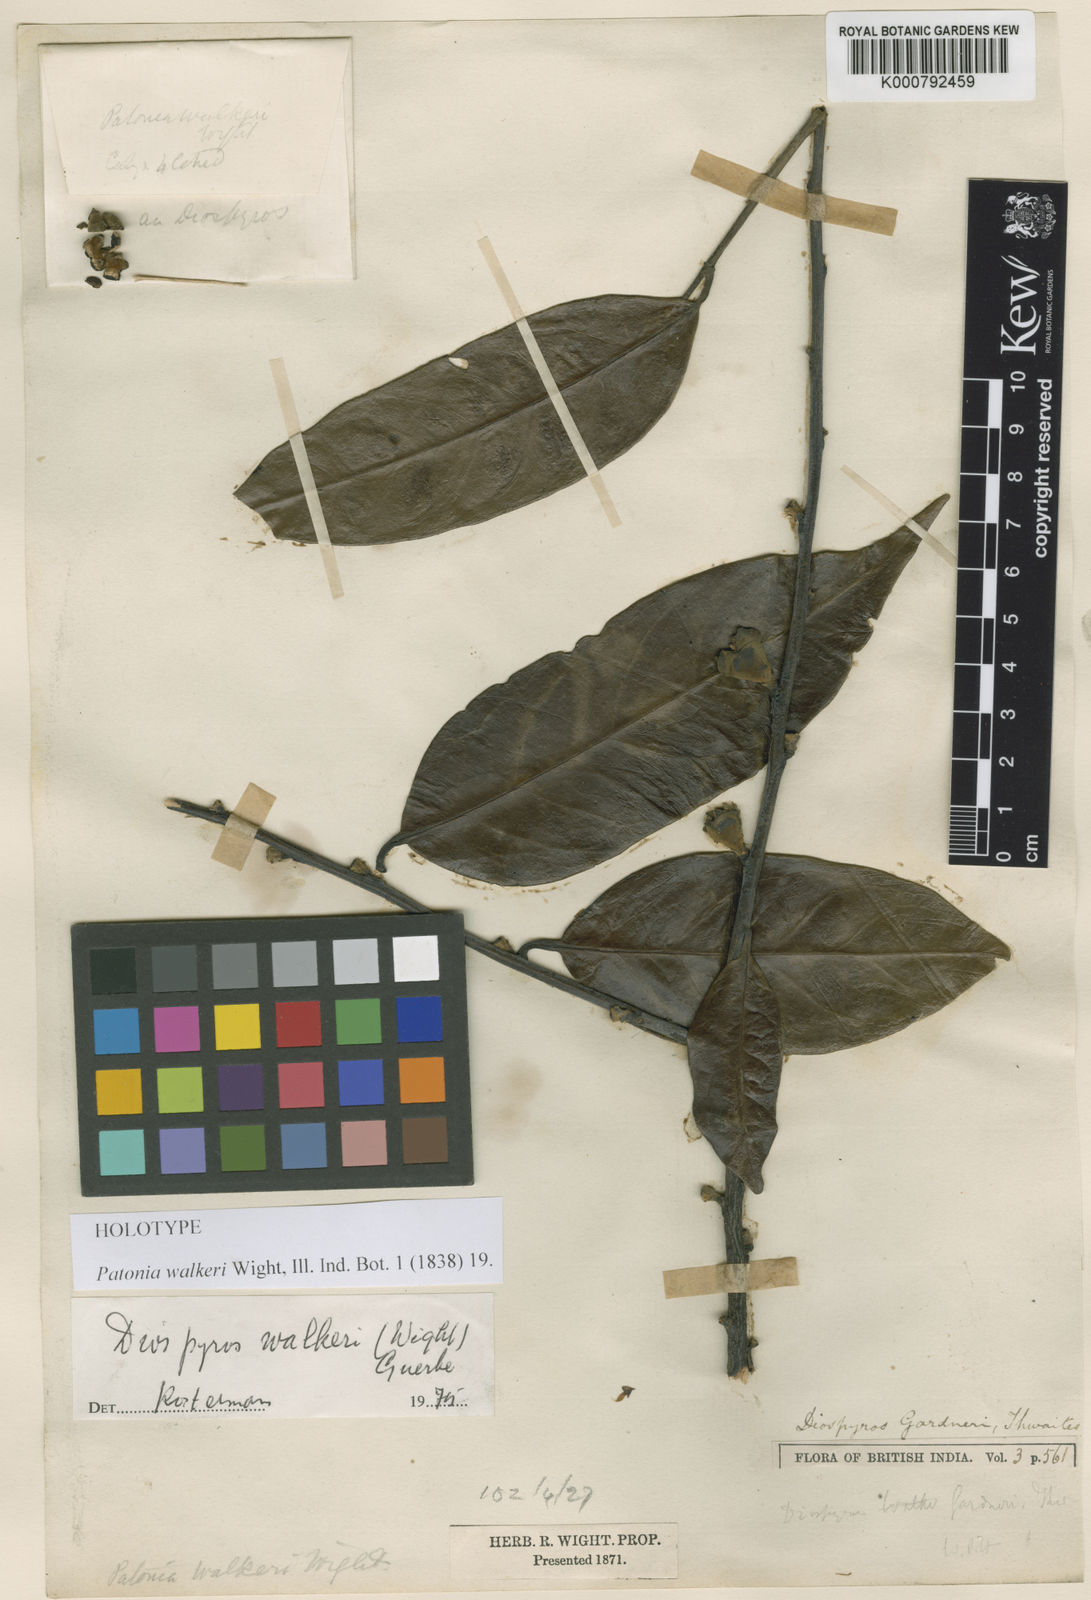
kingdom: Plantae
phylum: Tracheophyta
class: Magnoliopsida
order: Ericales
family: Ebenaceae
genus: Diospyros
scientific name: Diospyros walkeri
